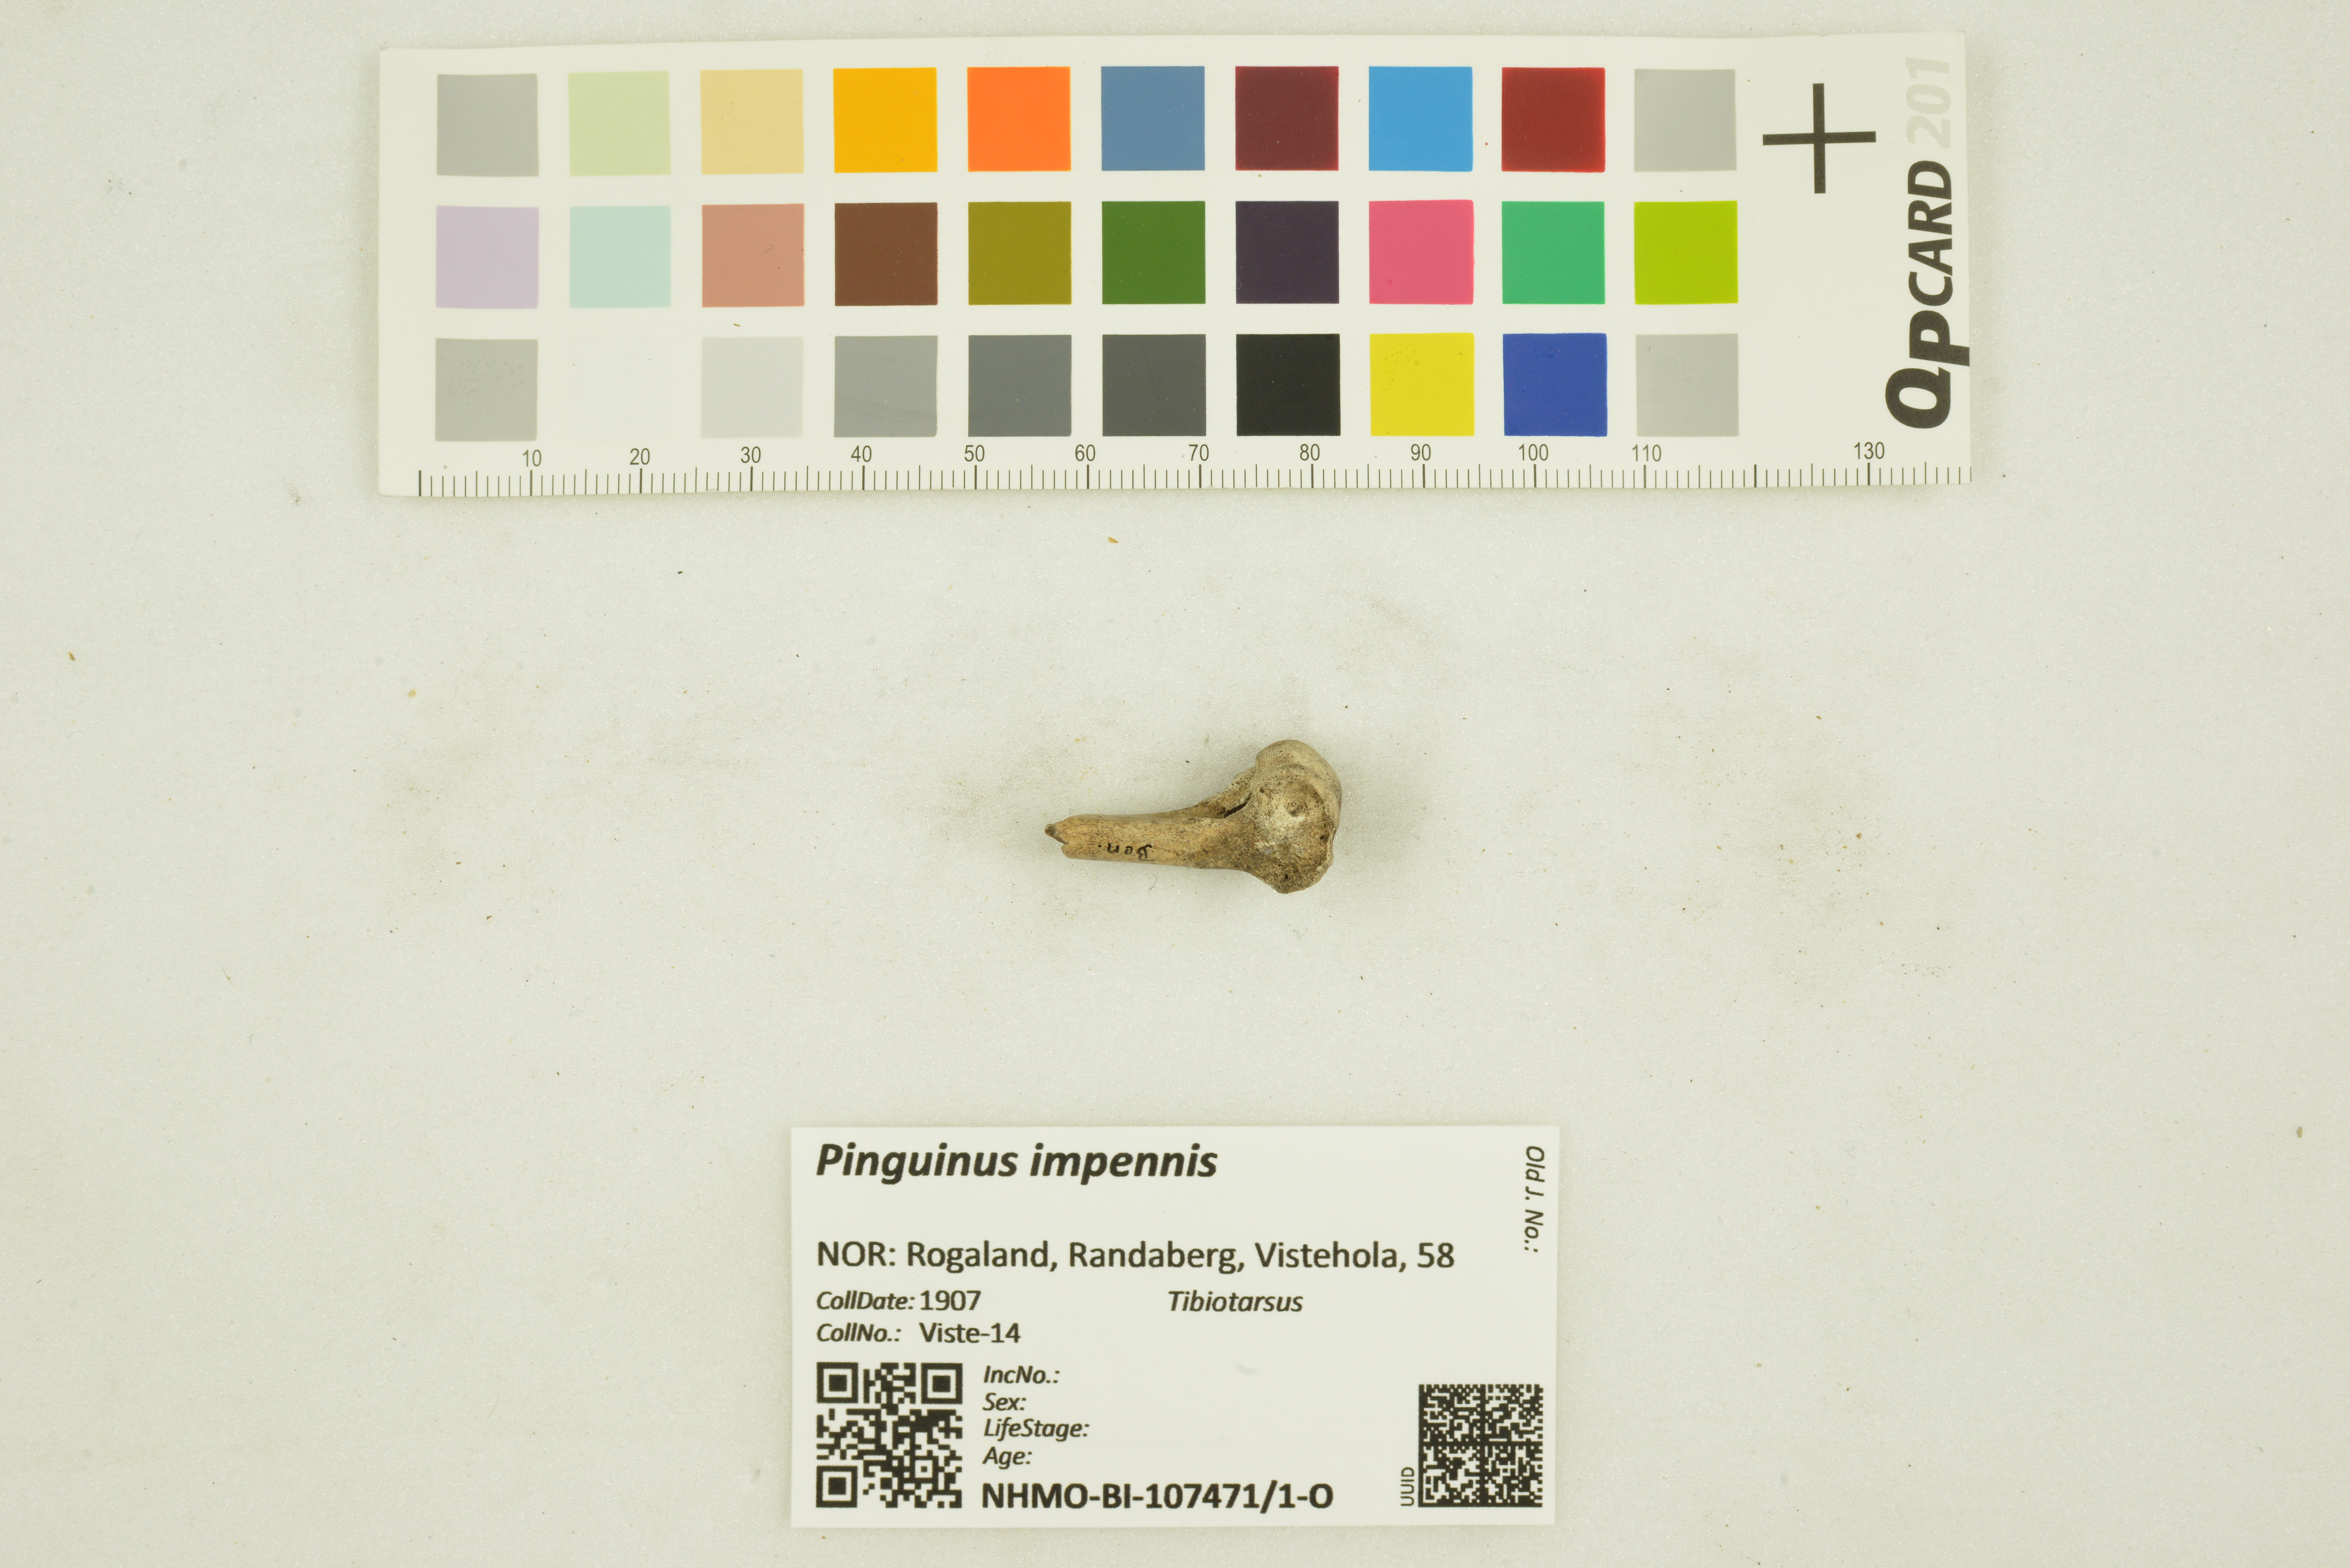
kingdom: Animalia
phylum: Chordata
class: Aves
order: Charadriiformes
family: Alcidae
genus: Pinguinus
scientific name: Pinguinus impennis
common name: Great auk
